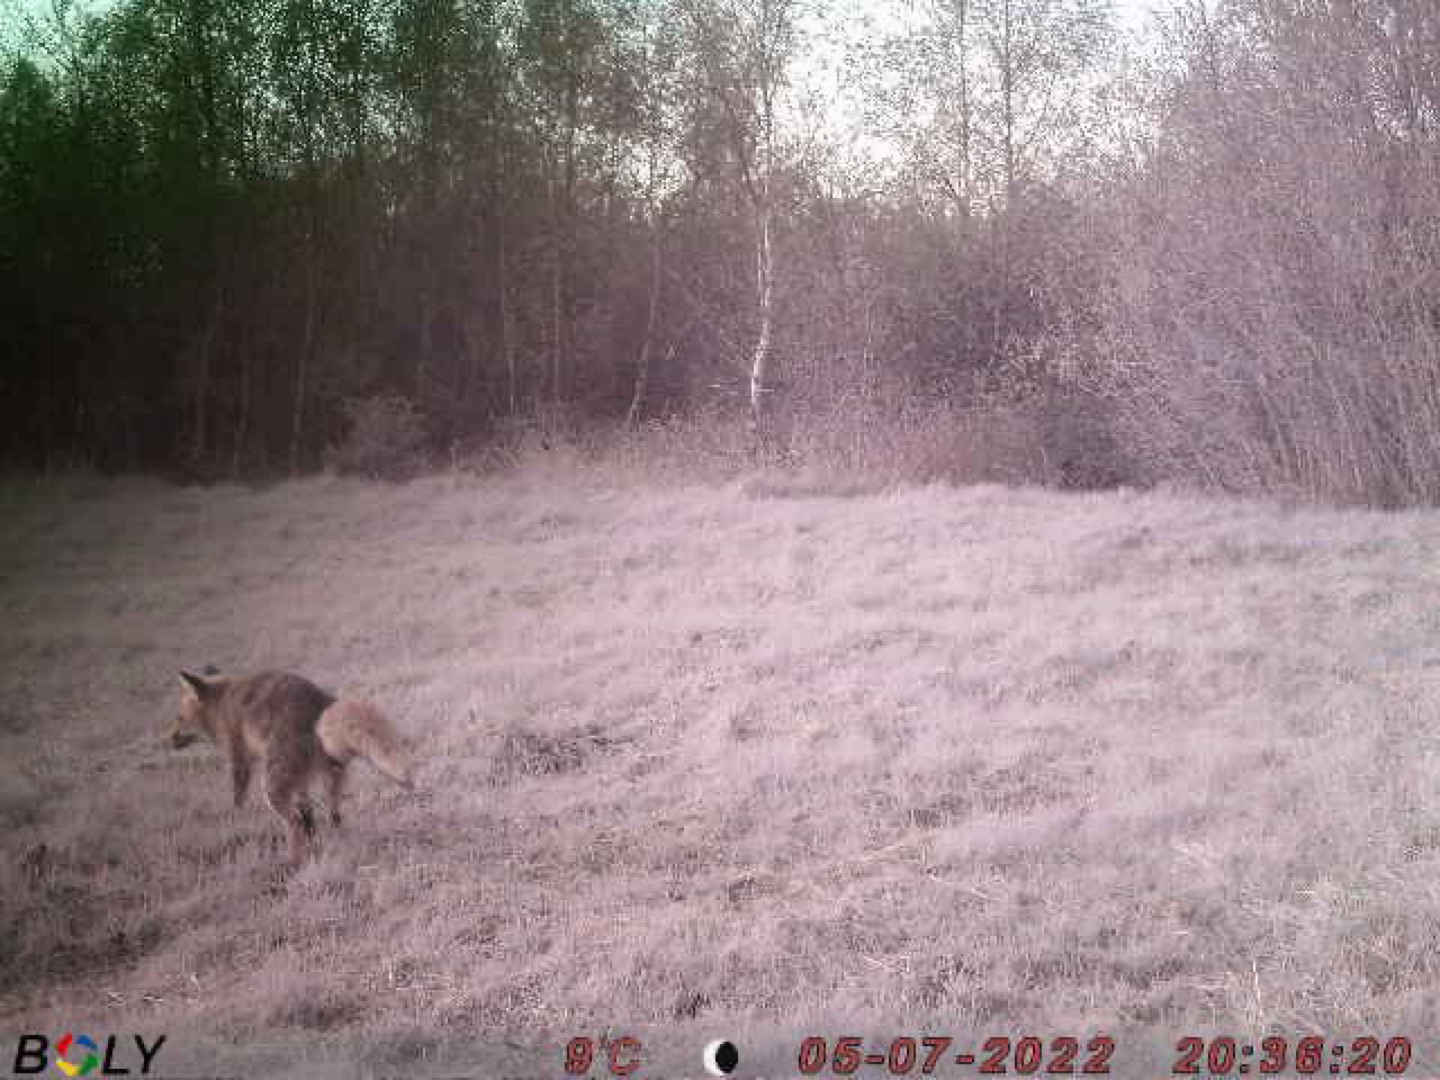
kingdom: Animalia
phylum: Chordata
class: Mammalia
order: Carnivora
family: Canidae
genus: Vulpes
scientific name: Vulpes vulpes
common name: Ræv
